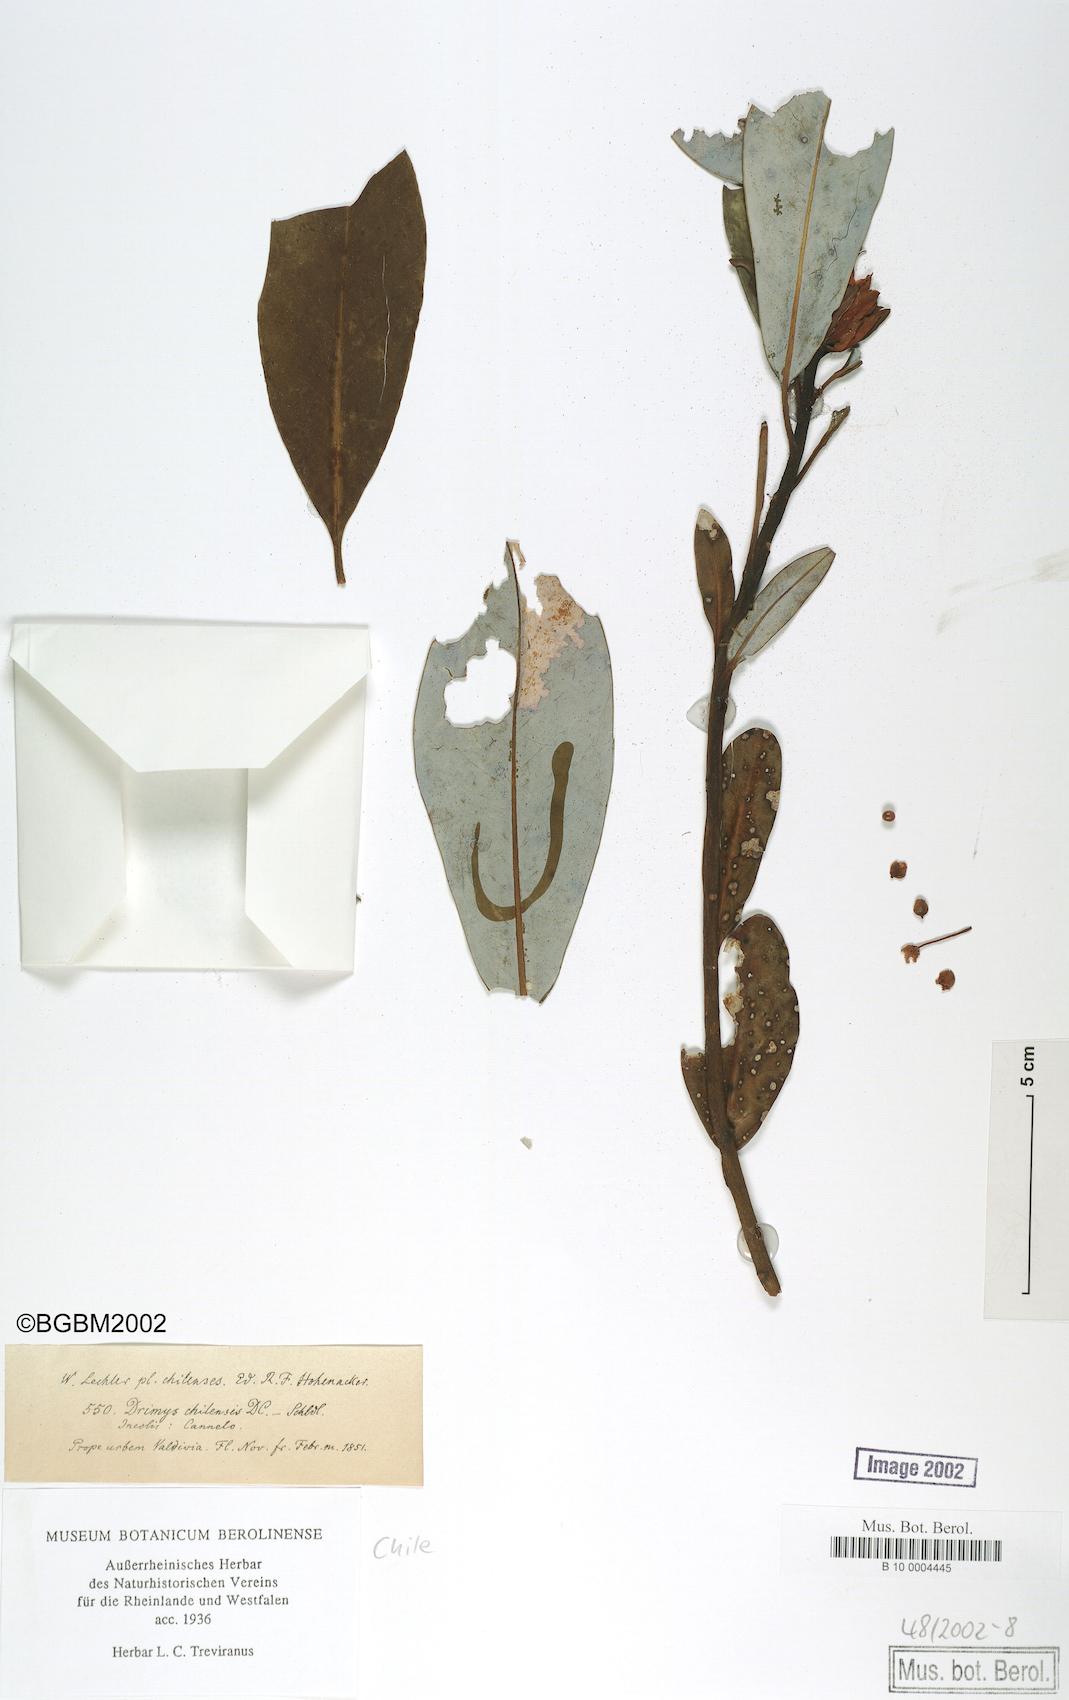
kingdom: Plantae
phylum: Tracheophyta
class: Magnoliopsida
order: Canellales
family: Winteraceae
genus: Drimys
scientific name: Drimys winteri
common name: Winter's-bark
